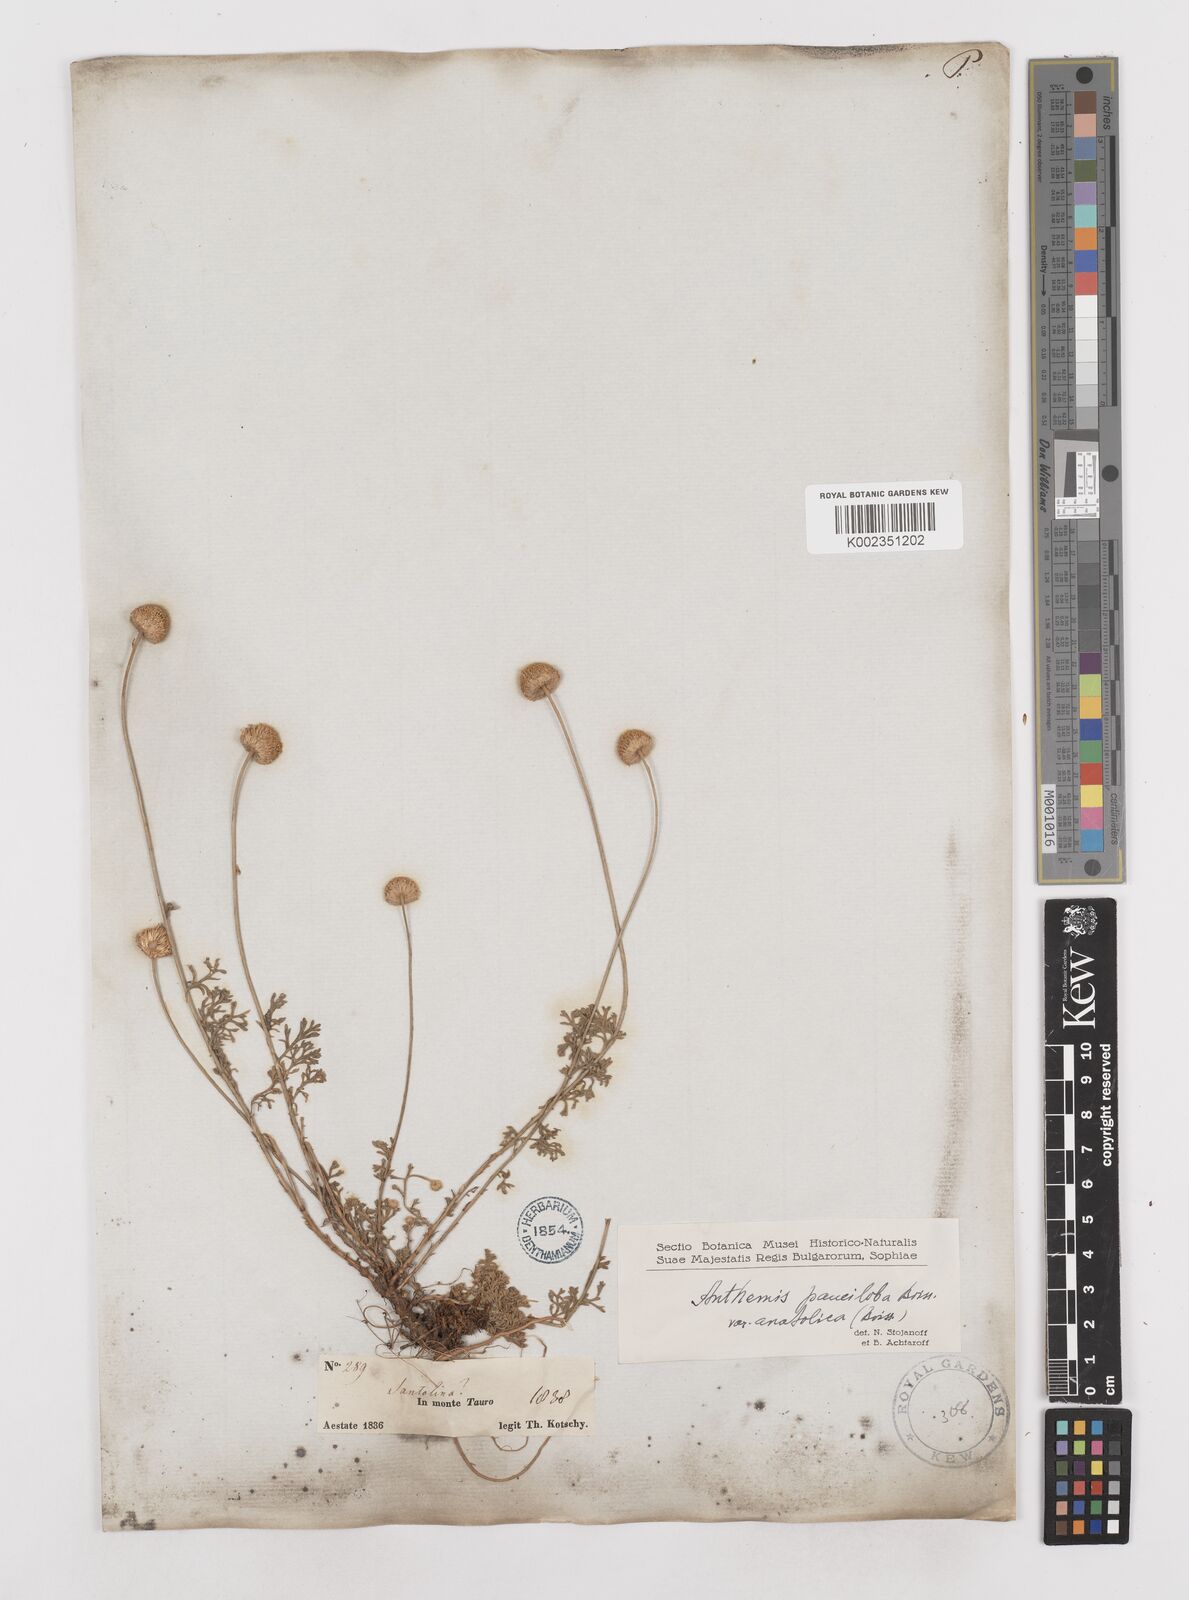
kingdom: Plantae
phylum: Tracheophyta
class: Magnoliopsida
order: Asterales
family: Asteraceae
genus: Anthemis
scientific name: Anthemis cretica
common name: Mountain dog-daisy
